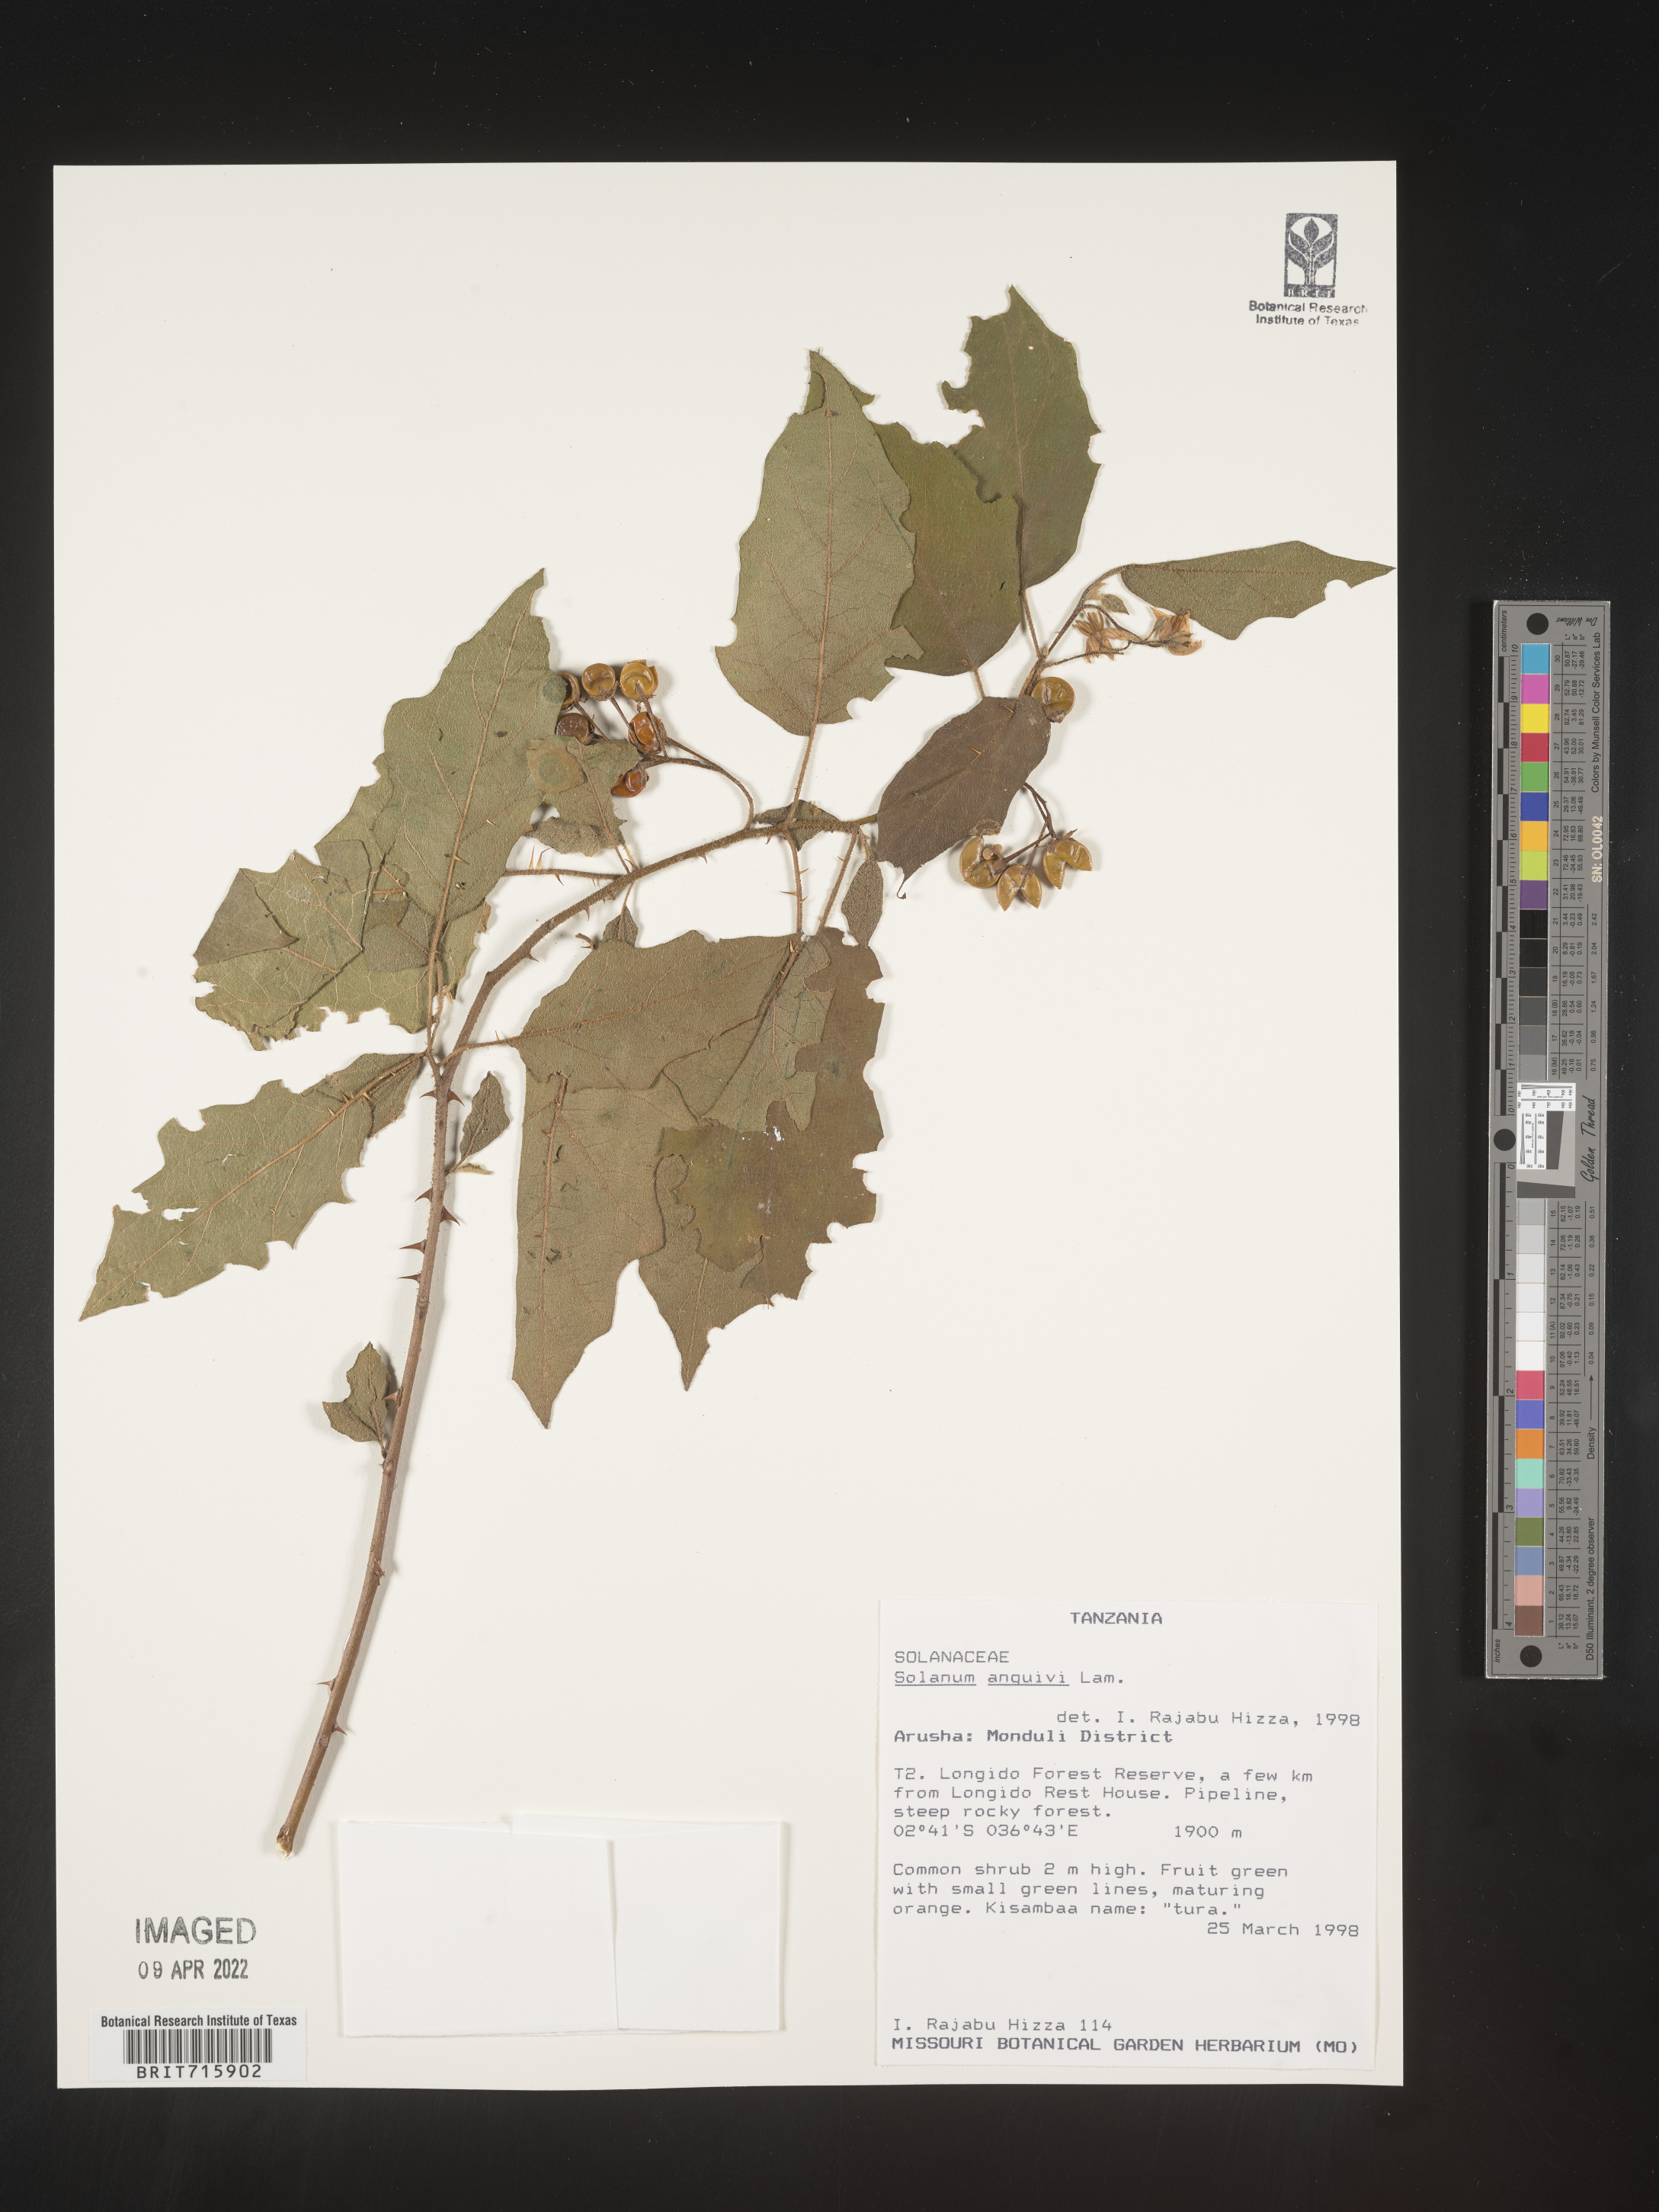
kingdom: Plantae
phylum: Tracheophyta
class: Magnoliopsida
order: Solanales
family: Solanaceae
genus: Solanum
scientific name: Solanum
